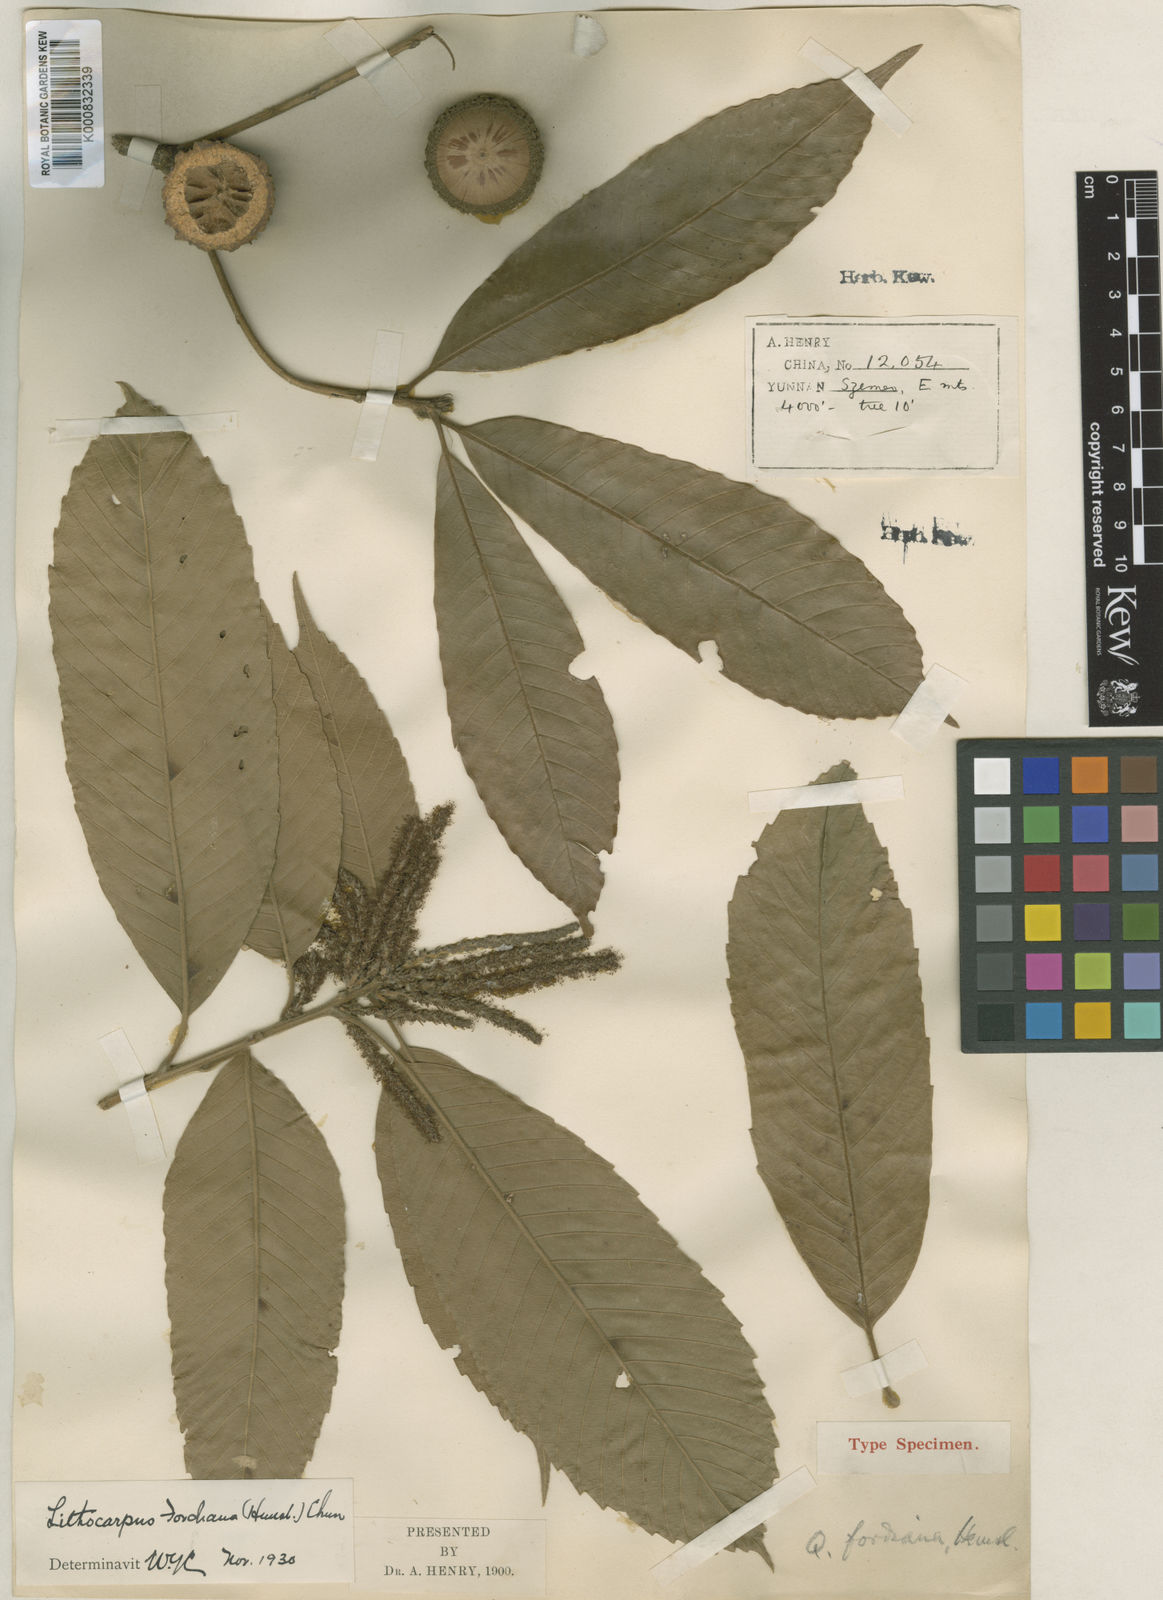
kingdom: Plantae
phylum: Tracheophyta
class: Magnoliopsida
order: Fagales
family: Fagaceae
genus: Lithocarpus
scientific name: Lithocarpus fordianus
